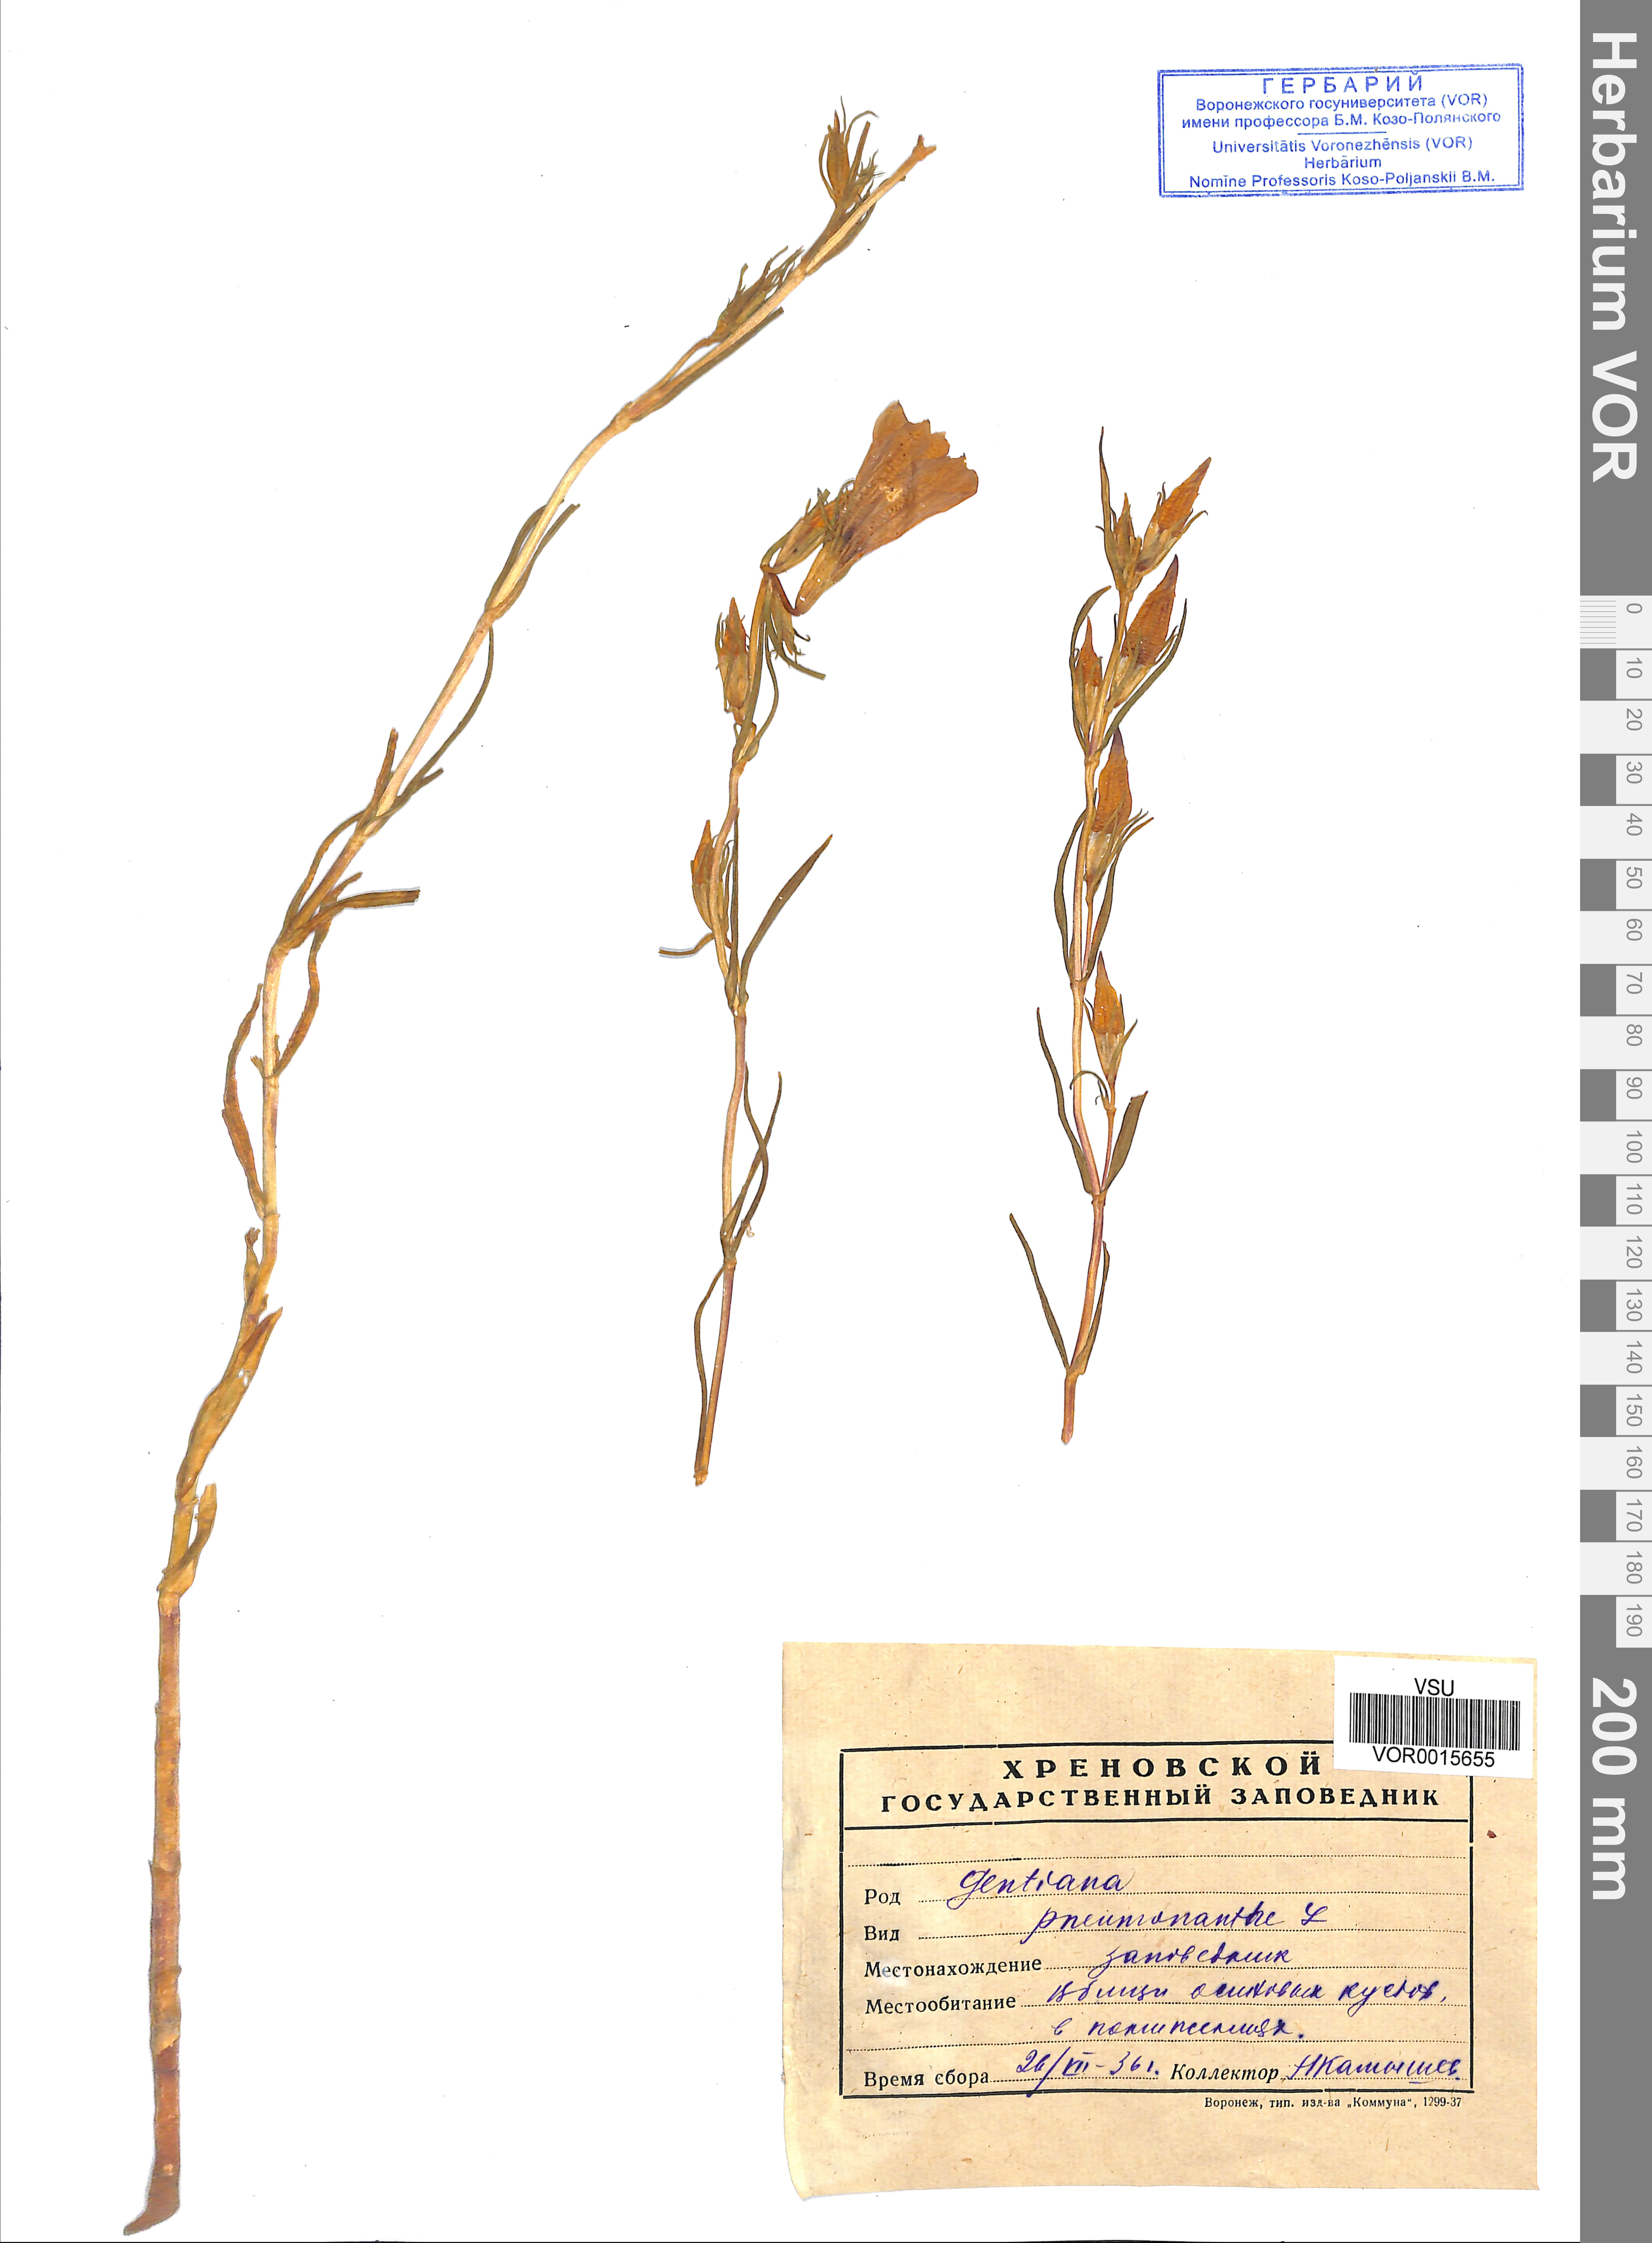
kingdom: Plantae
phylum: Tracheophyta
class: Magnoliopsida
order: Gentianales
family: Gentianaceae
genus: Gentiana
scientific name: Gentiana pneumonanthe
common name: Marsh gentian
